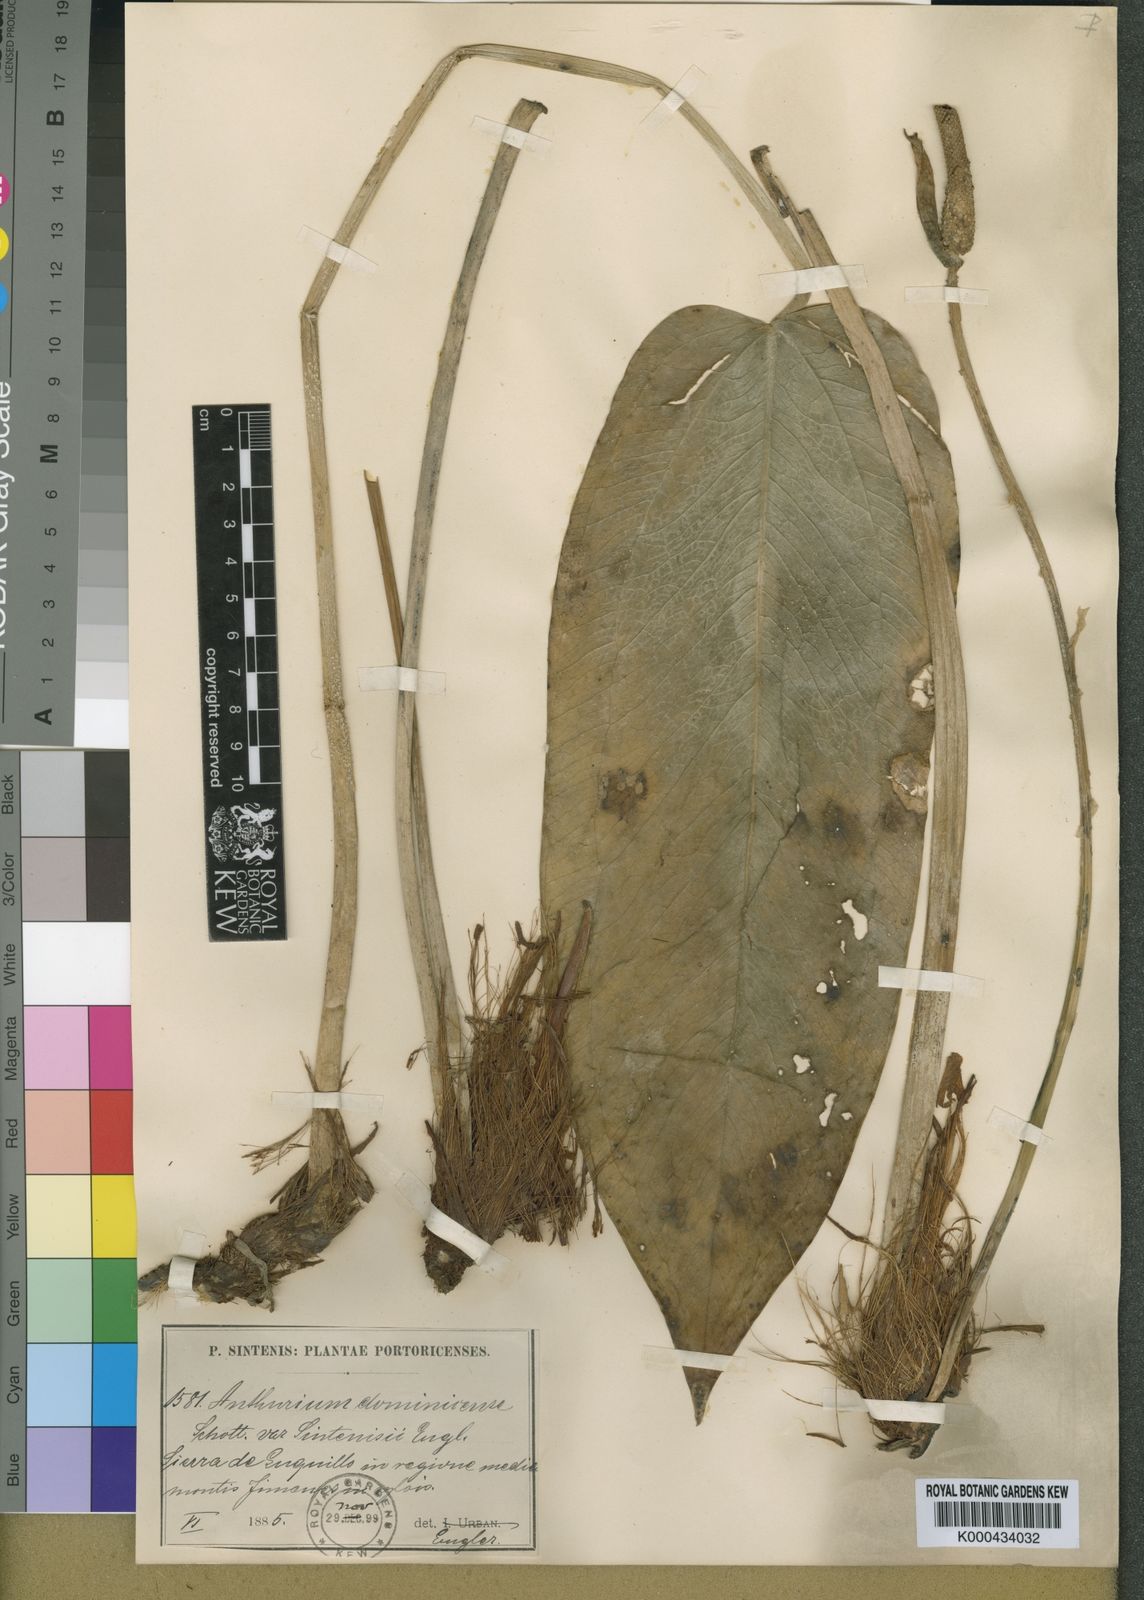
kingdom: Plantae
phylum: Tracheophyta
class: Liliopsida
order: Alismatales
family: Araceae
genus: Anthurium
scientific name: Anthurium dominicense
